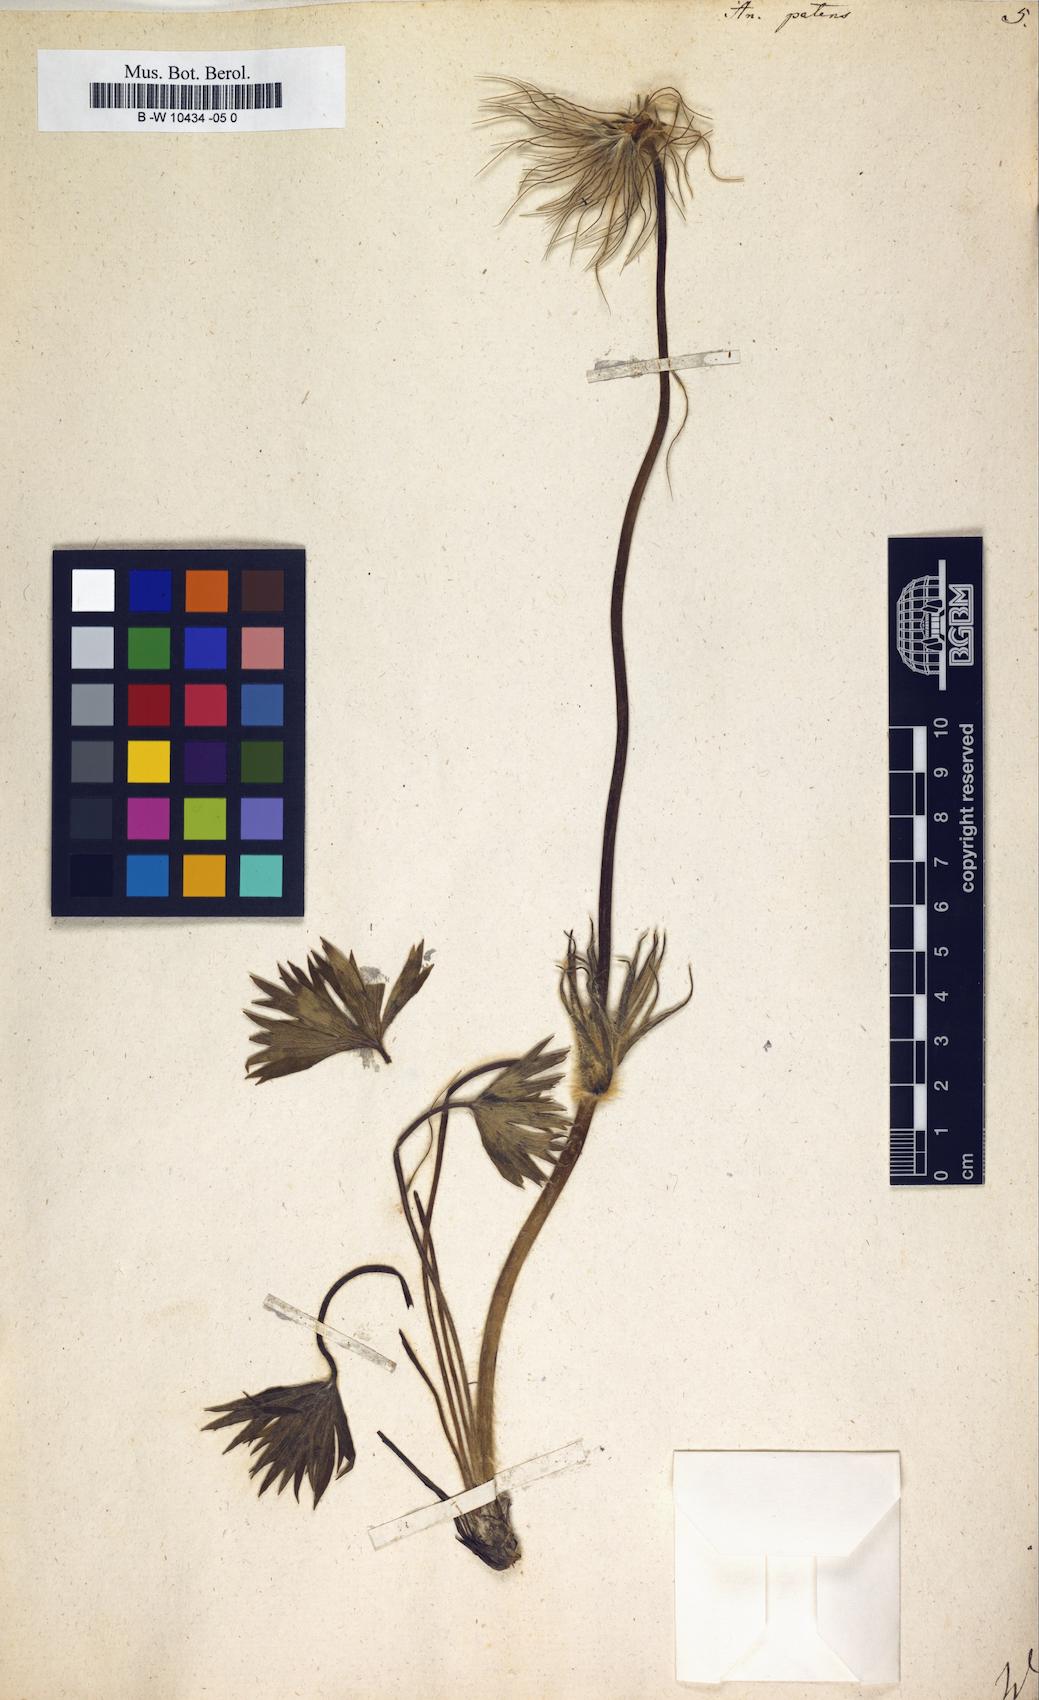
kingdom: Plantae
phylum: Tracheophyta
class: Magnoliopsida
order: Ranunculales
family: Ranunculaceae
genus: Pulsatilla
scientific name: Pulsatilla patens
